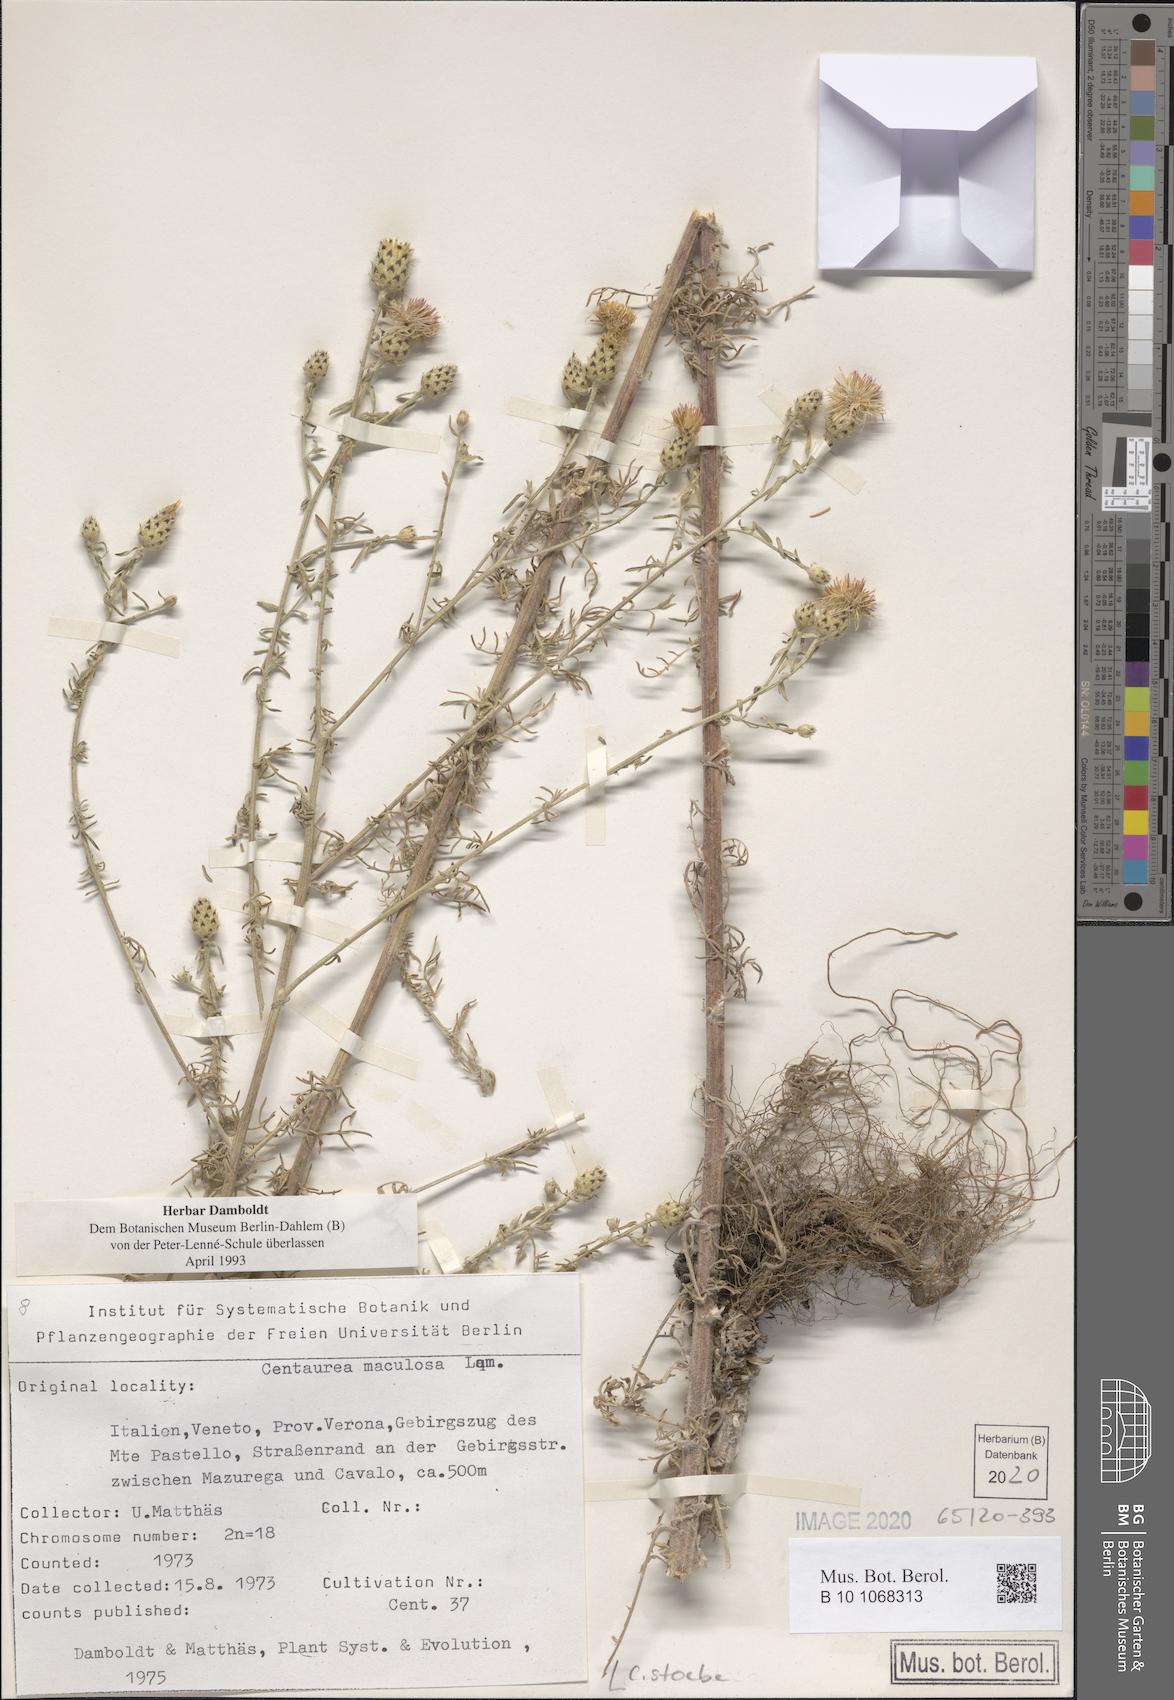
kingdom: Plantae
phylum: Tracheophyta
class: Magnoliopsida
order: Asterales
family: Asteraceae
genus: Centaurea
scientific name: Centaurea stoebe
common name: Spotted knapweed
